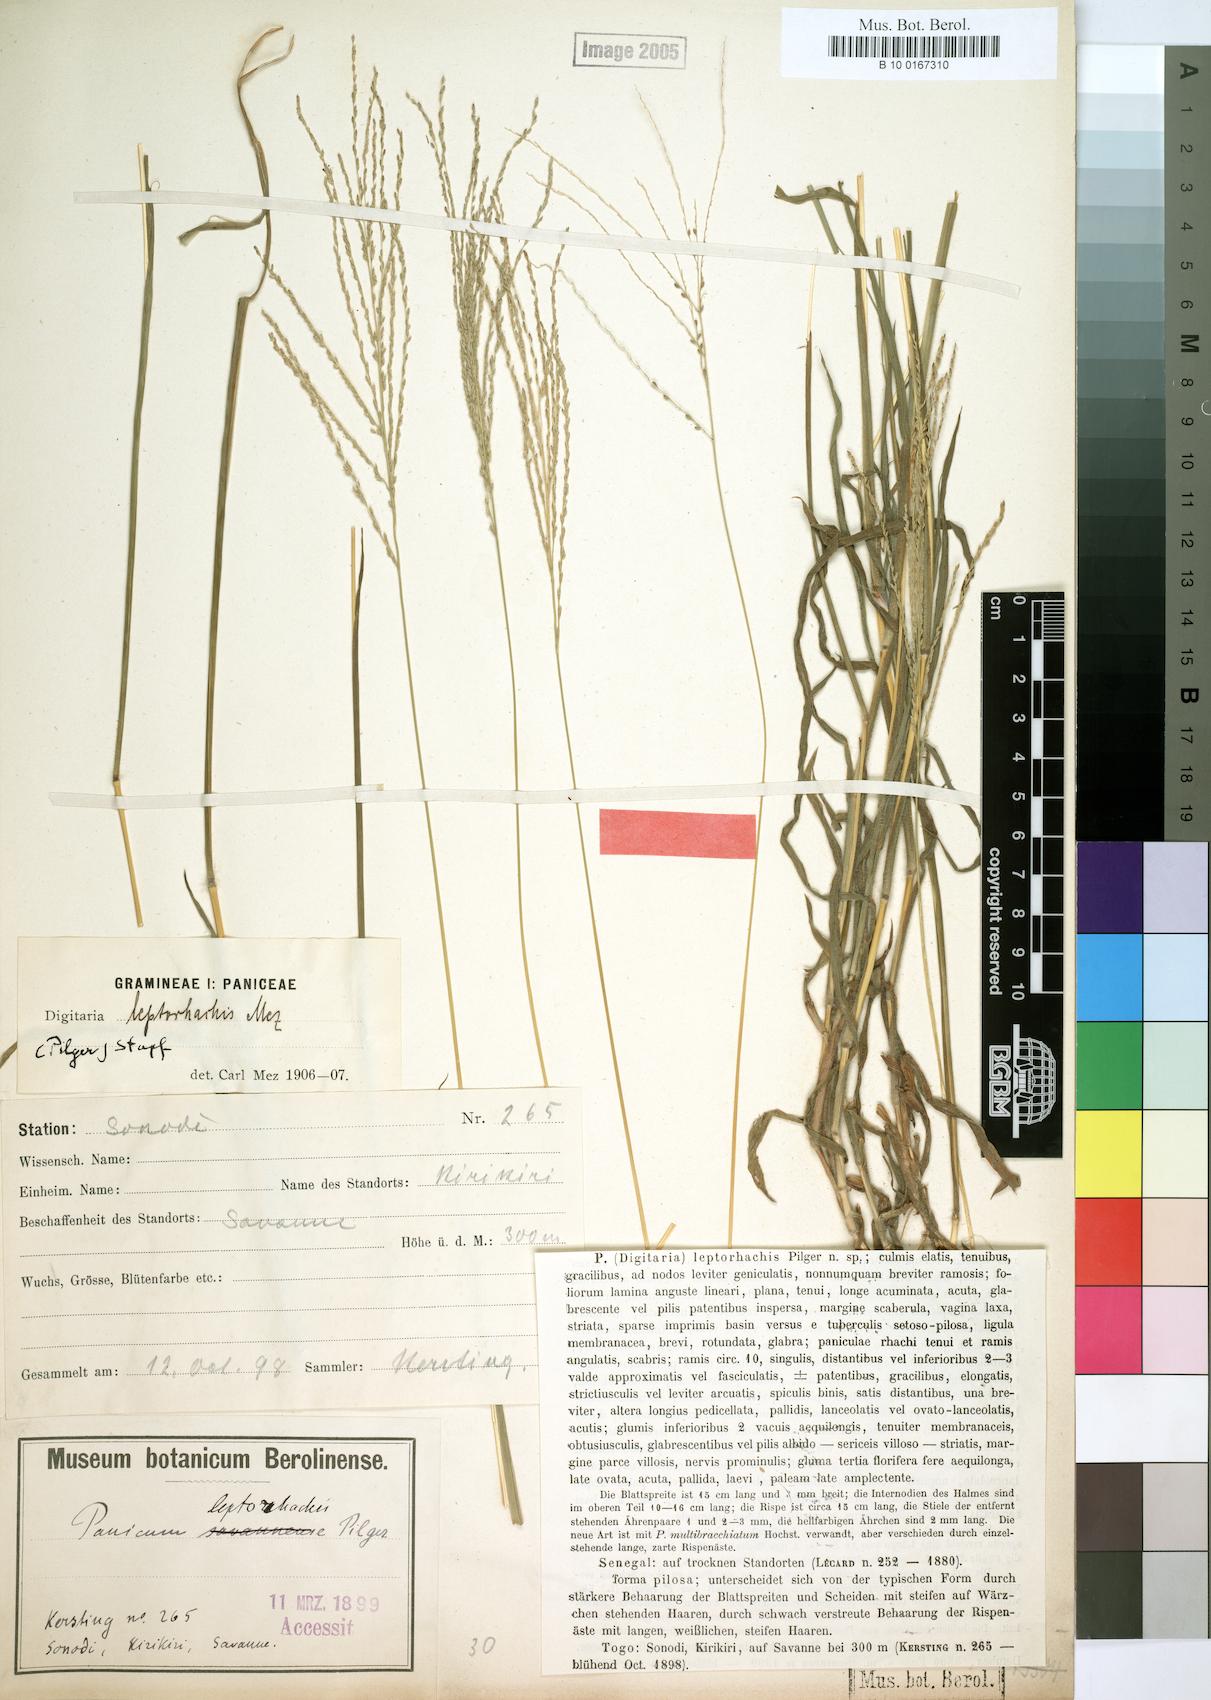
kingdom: Plantae
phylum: Tracheophyta
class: Liliopsida
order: Poales
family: Poaceae
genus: Digitaria
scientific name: Digitaria leptorhachis
